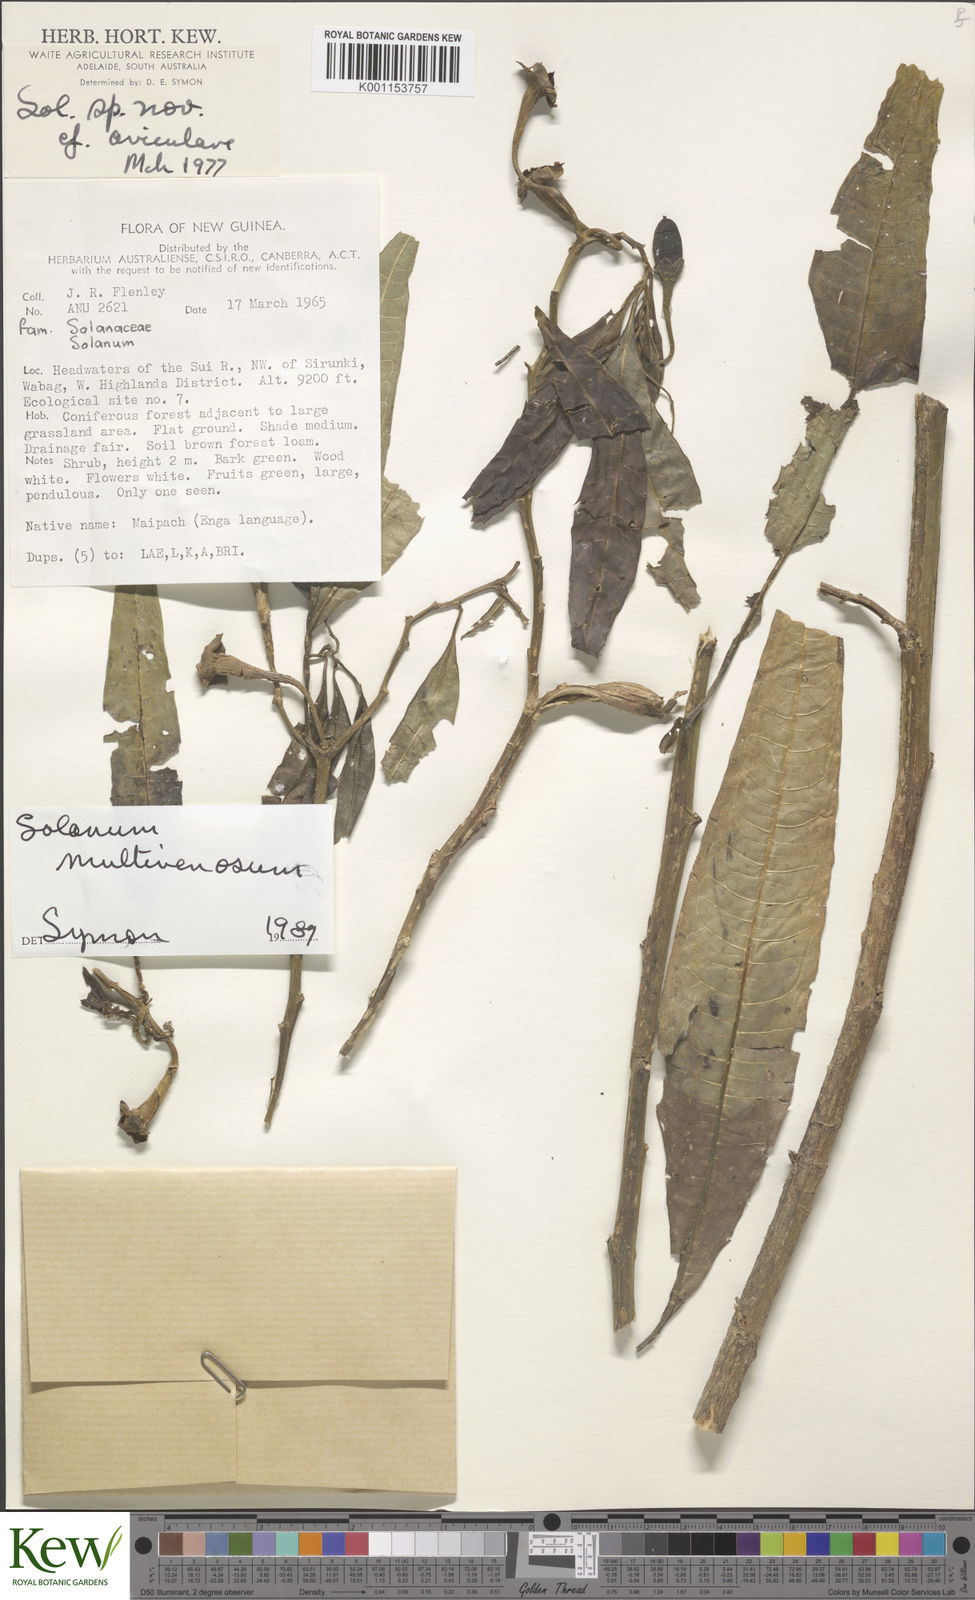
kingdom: Plantae
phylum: Tracheophyta
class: Magnoliopsida
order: Solanales
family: Solanaceae
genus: Solanum
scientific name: Solanum multivenosum
